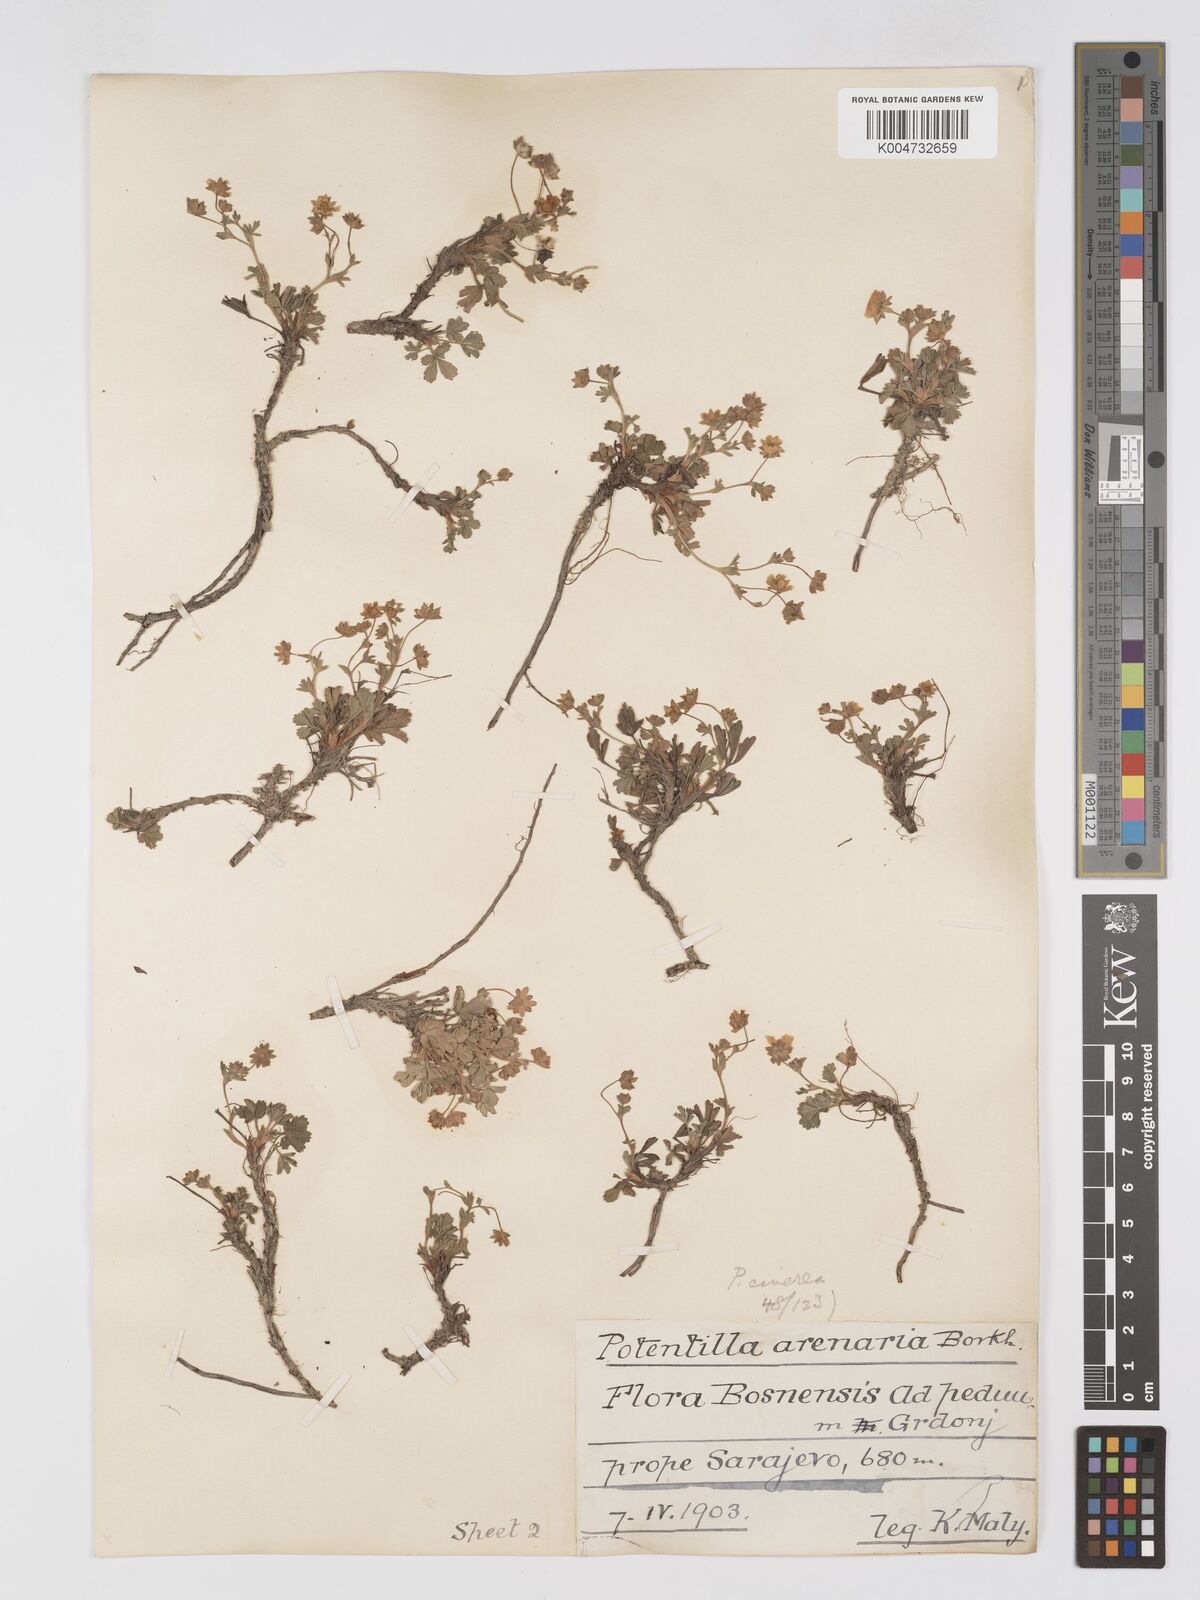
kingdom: Plantae
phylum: Tracheophyta
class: Magnoliopsida
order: Rosales
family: Rosaceae
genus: Potentilla
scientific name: Potentilla cinerea
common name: Ashy cinquefoil
